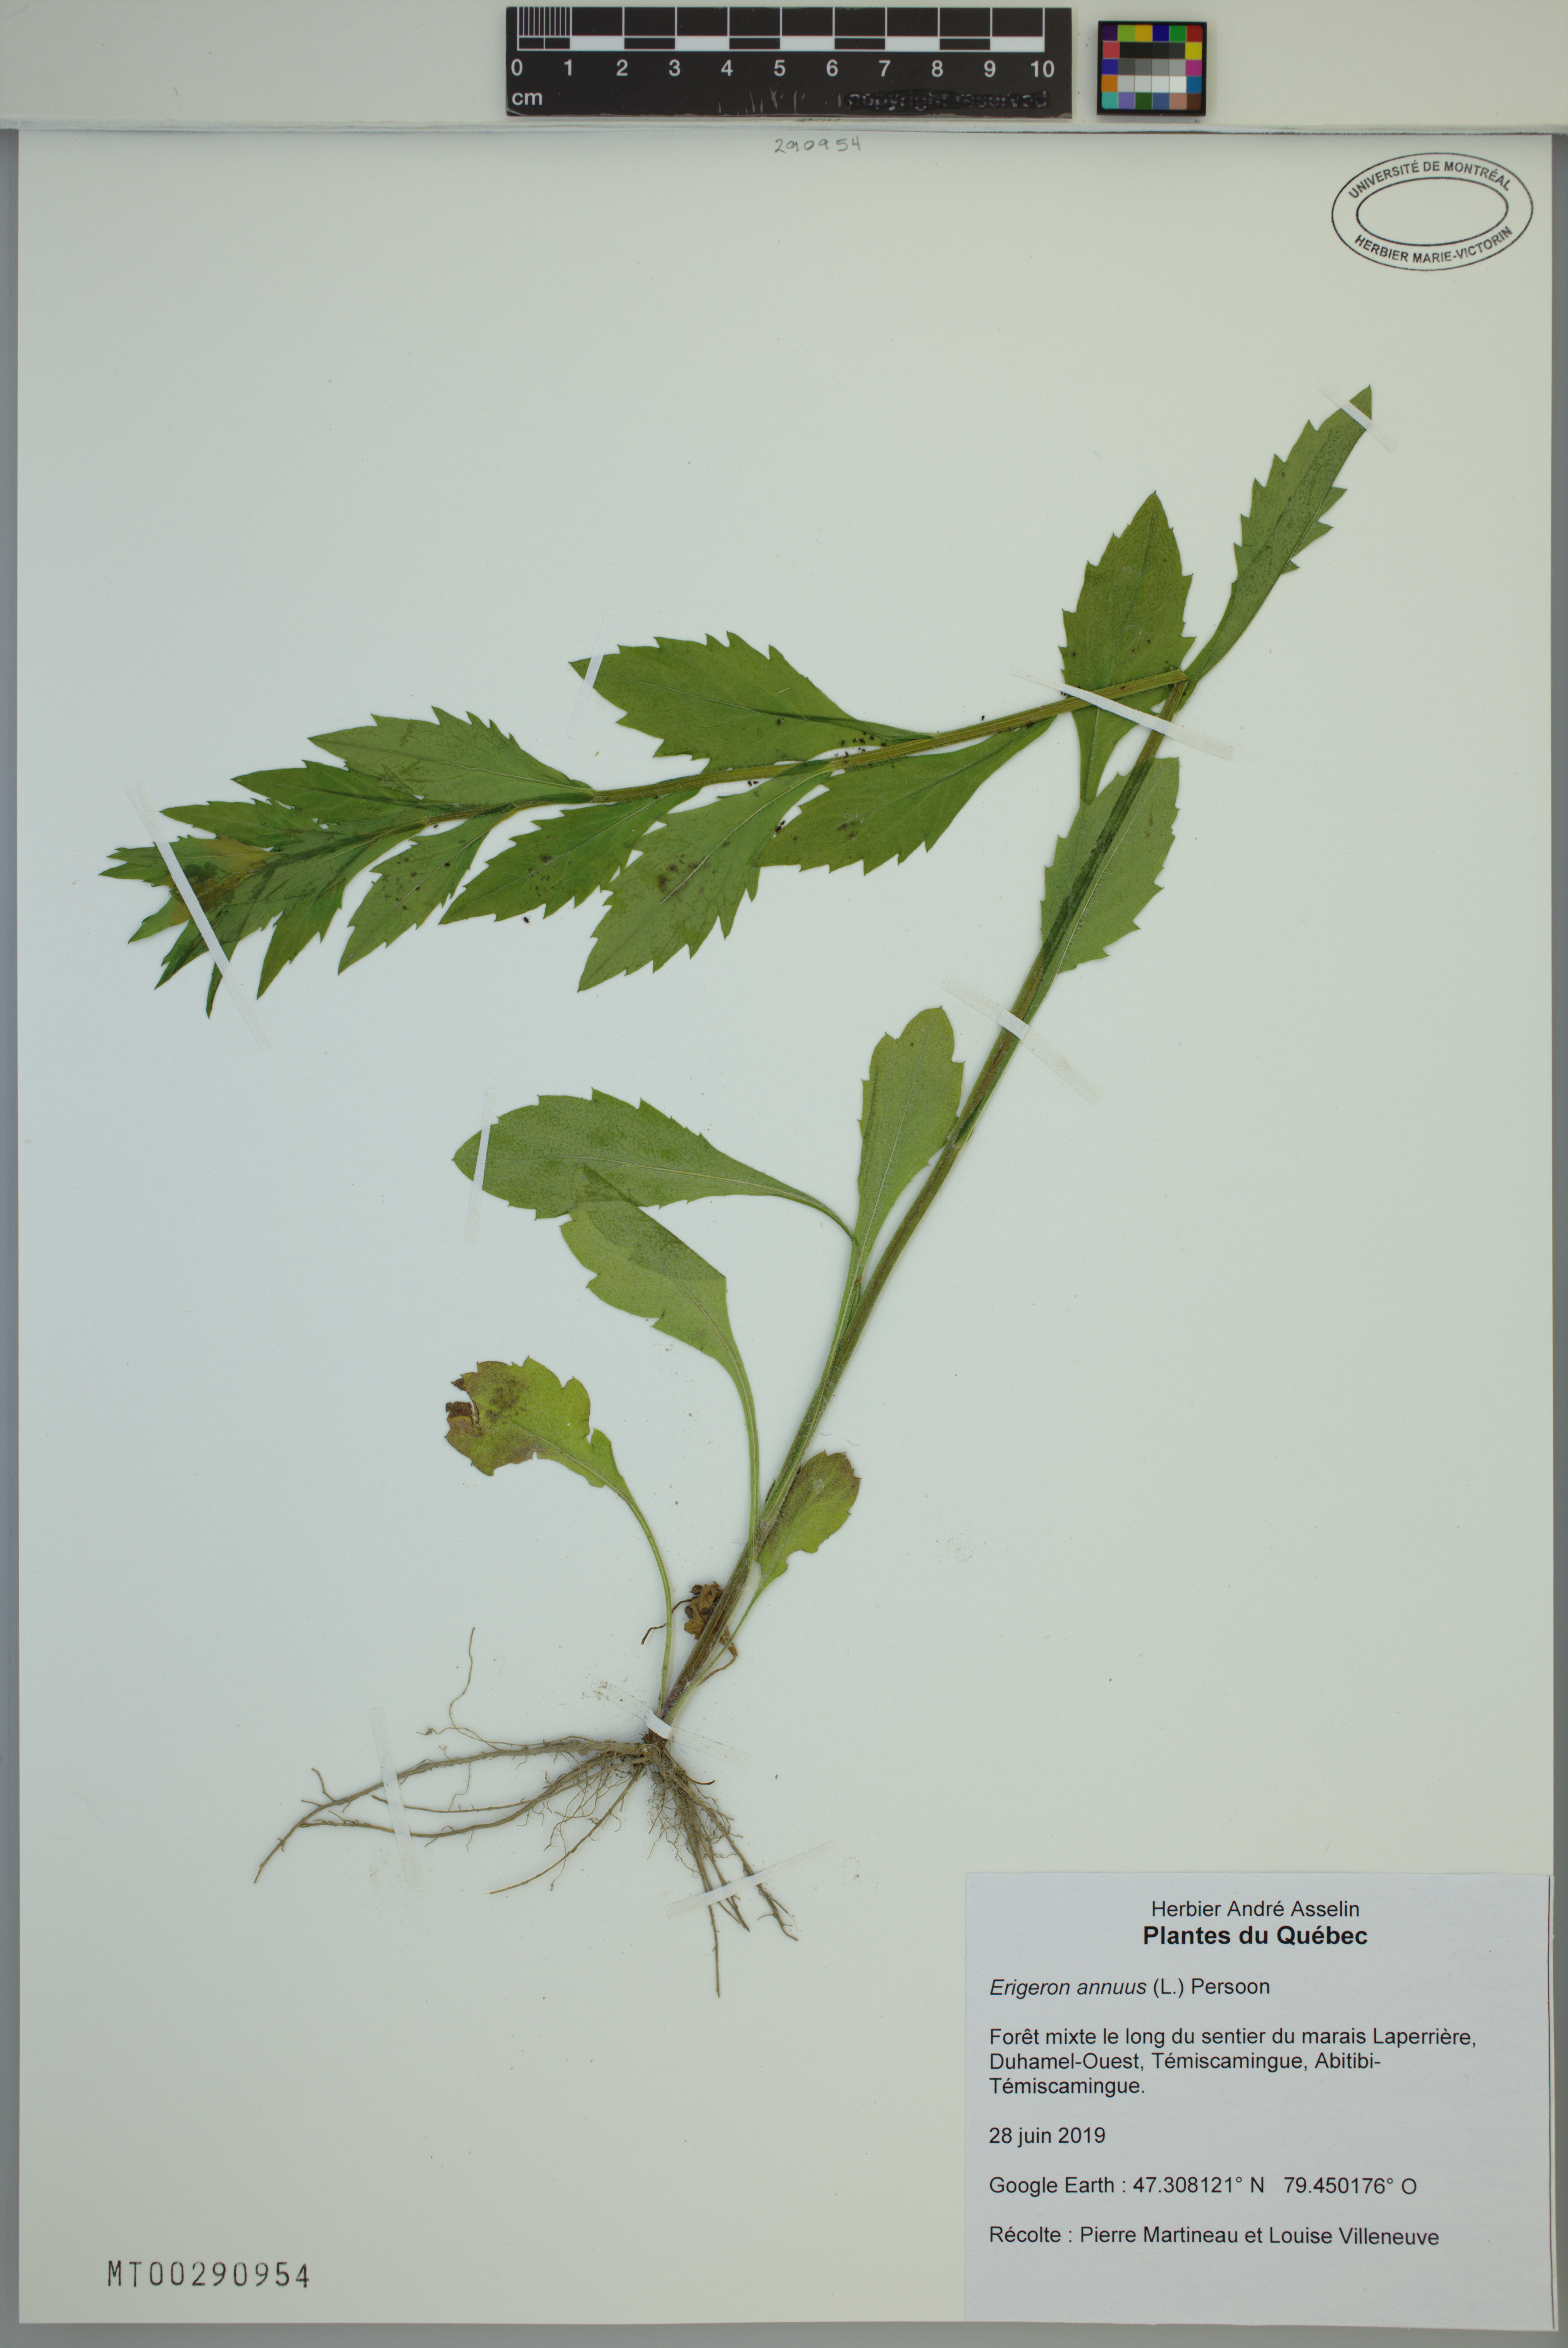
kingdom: Plantae
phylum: Tracheophyta
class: Magnoliopsida
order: Asterales
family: Asteraceae
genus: Erigeron
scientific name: Erigeron annuus
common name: Tall fleabane
